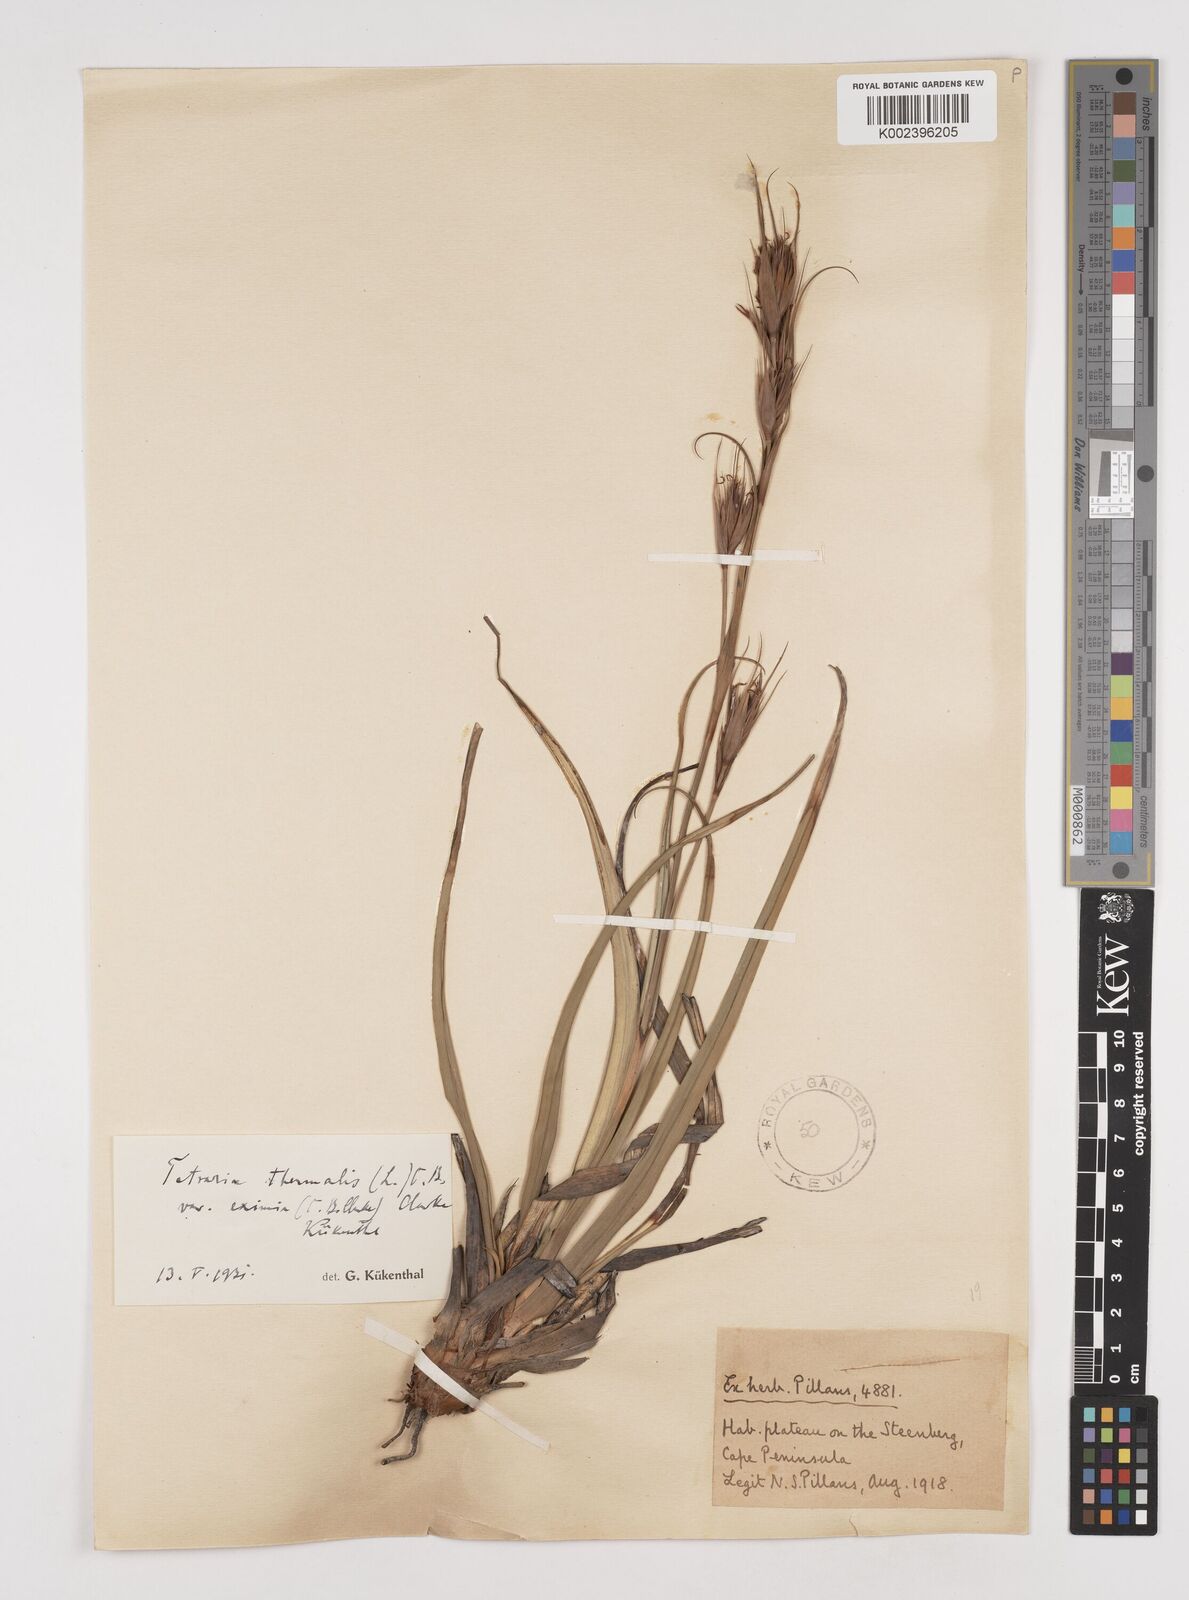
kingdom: Plantae
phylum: Tracheophyta
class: Liliopsida
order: Poales
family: Cyperaceae
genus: Tetraria
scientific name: Tetraria eximia
